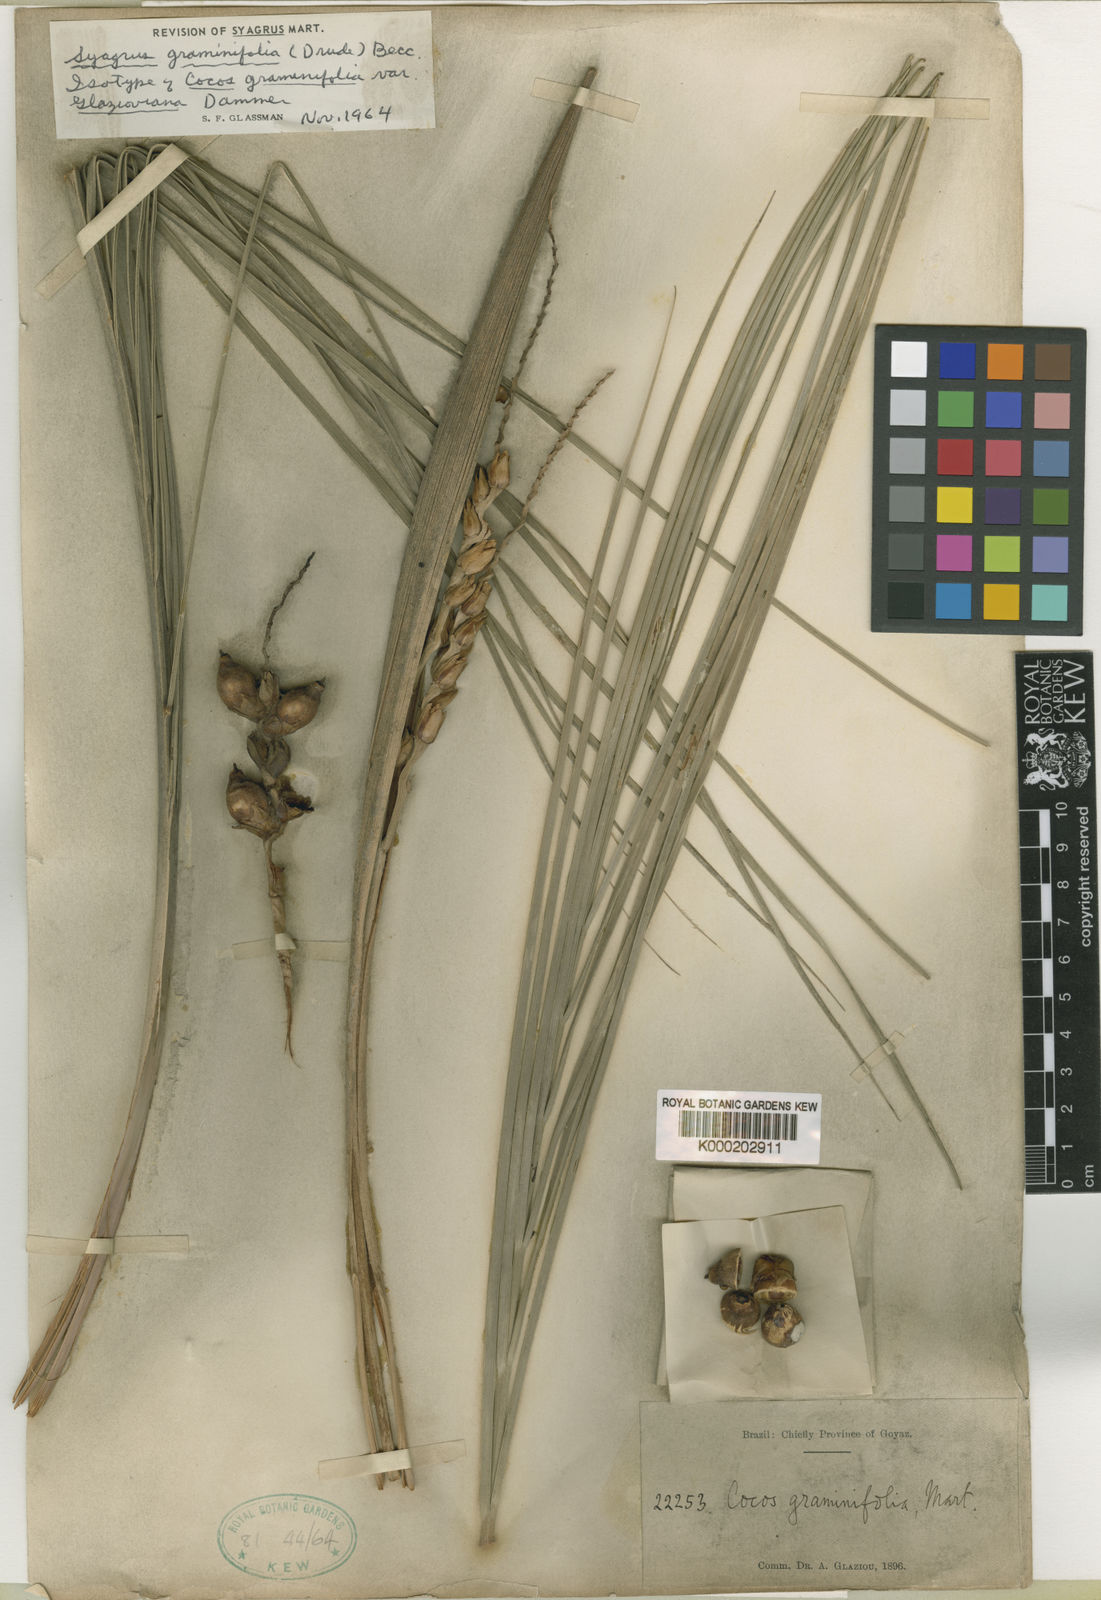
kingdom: Plantae
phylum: Tracheophyta
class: Liliopsida
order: Arecales
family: Arecaceae
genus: Syagrus
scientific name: Syagrus graminifolia
